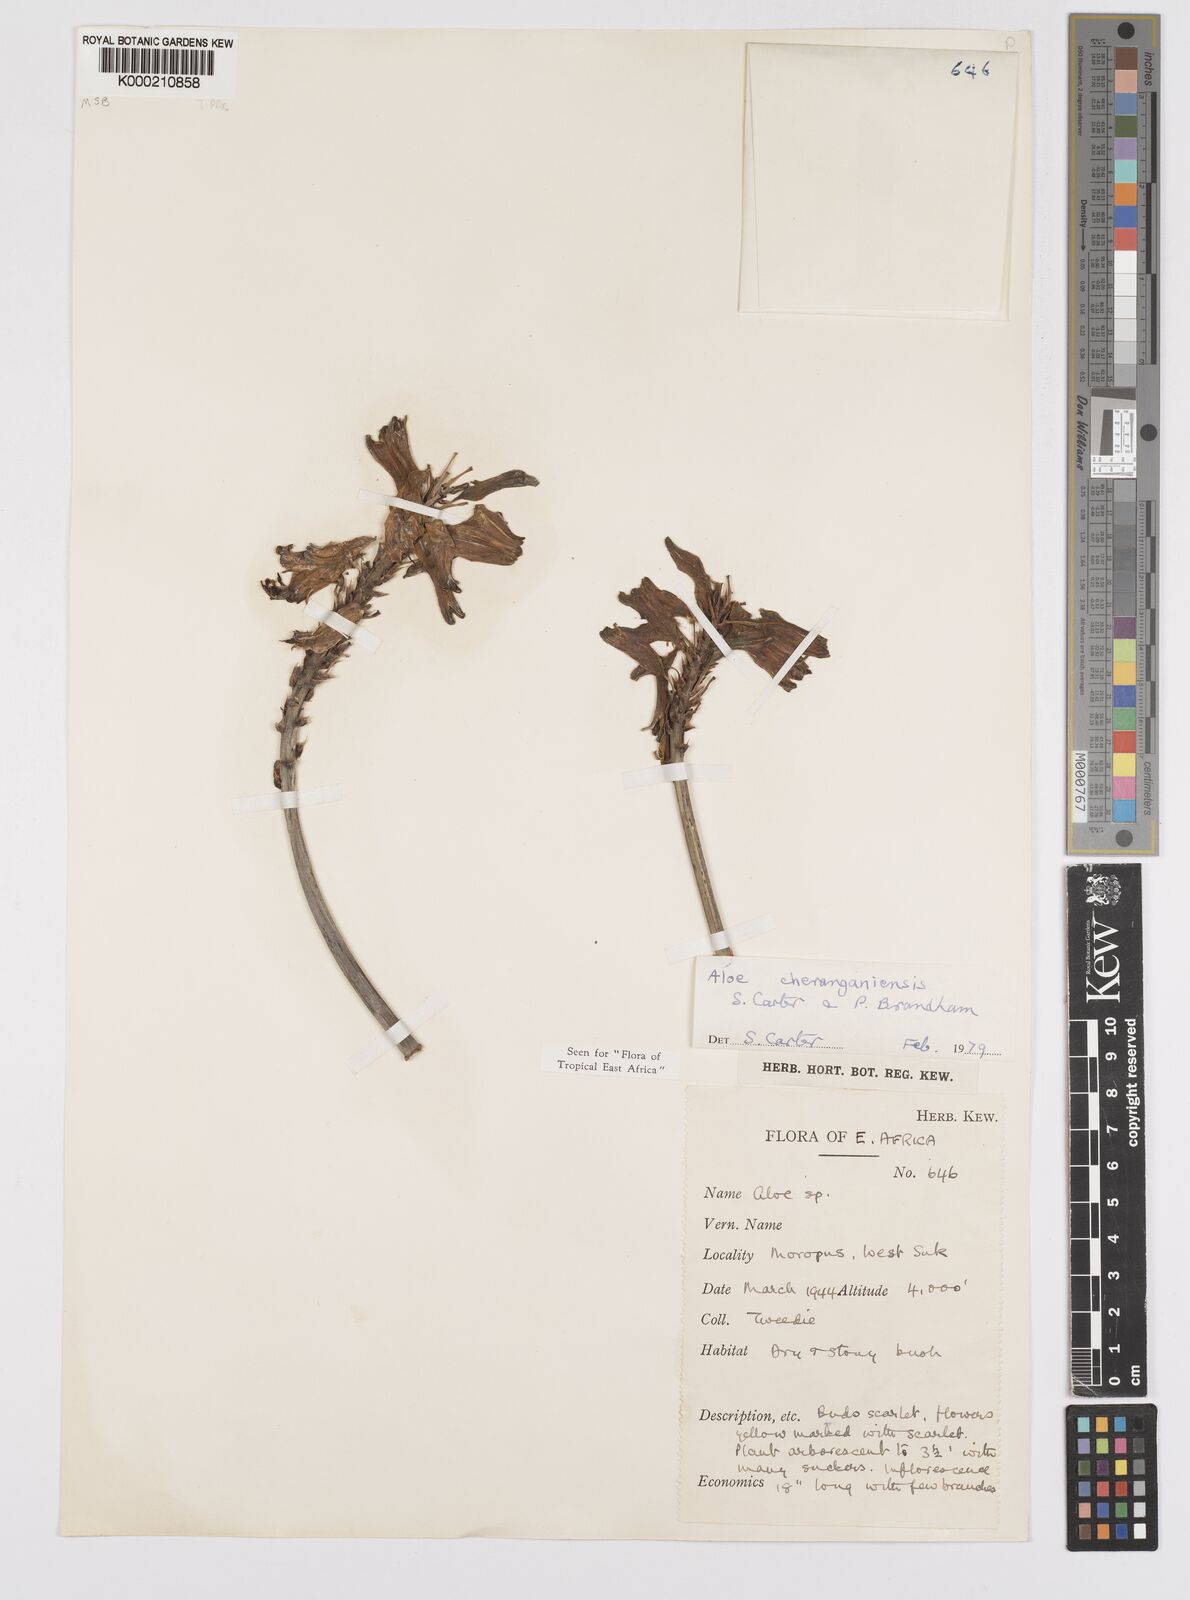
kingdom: Plantae
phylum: Tracheophyta
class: Liliopsida
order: Asparagales
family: Asphodelaceae
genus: Aloe
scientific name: Aloe cheranganiensis
